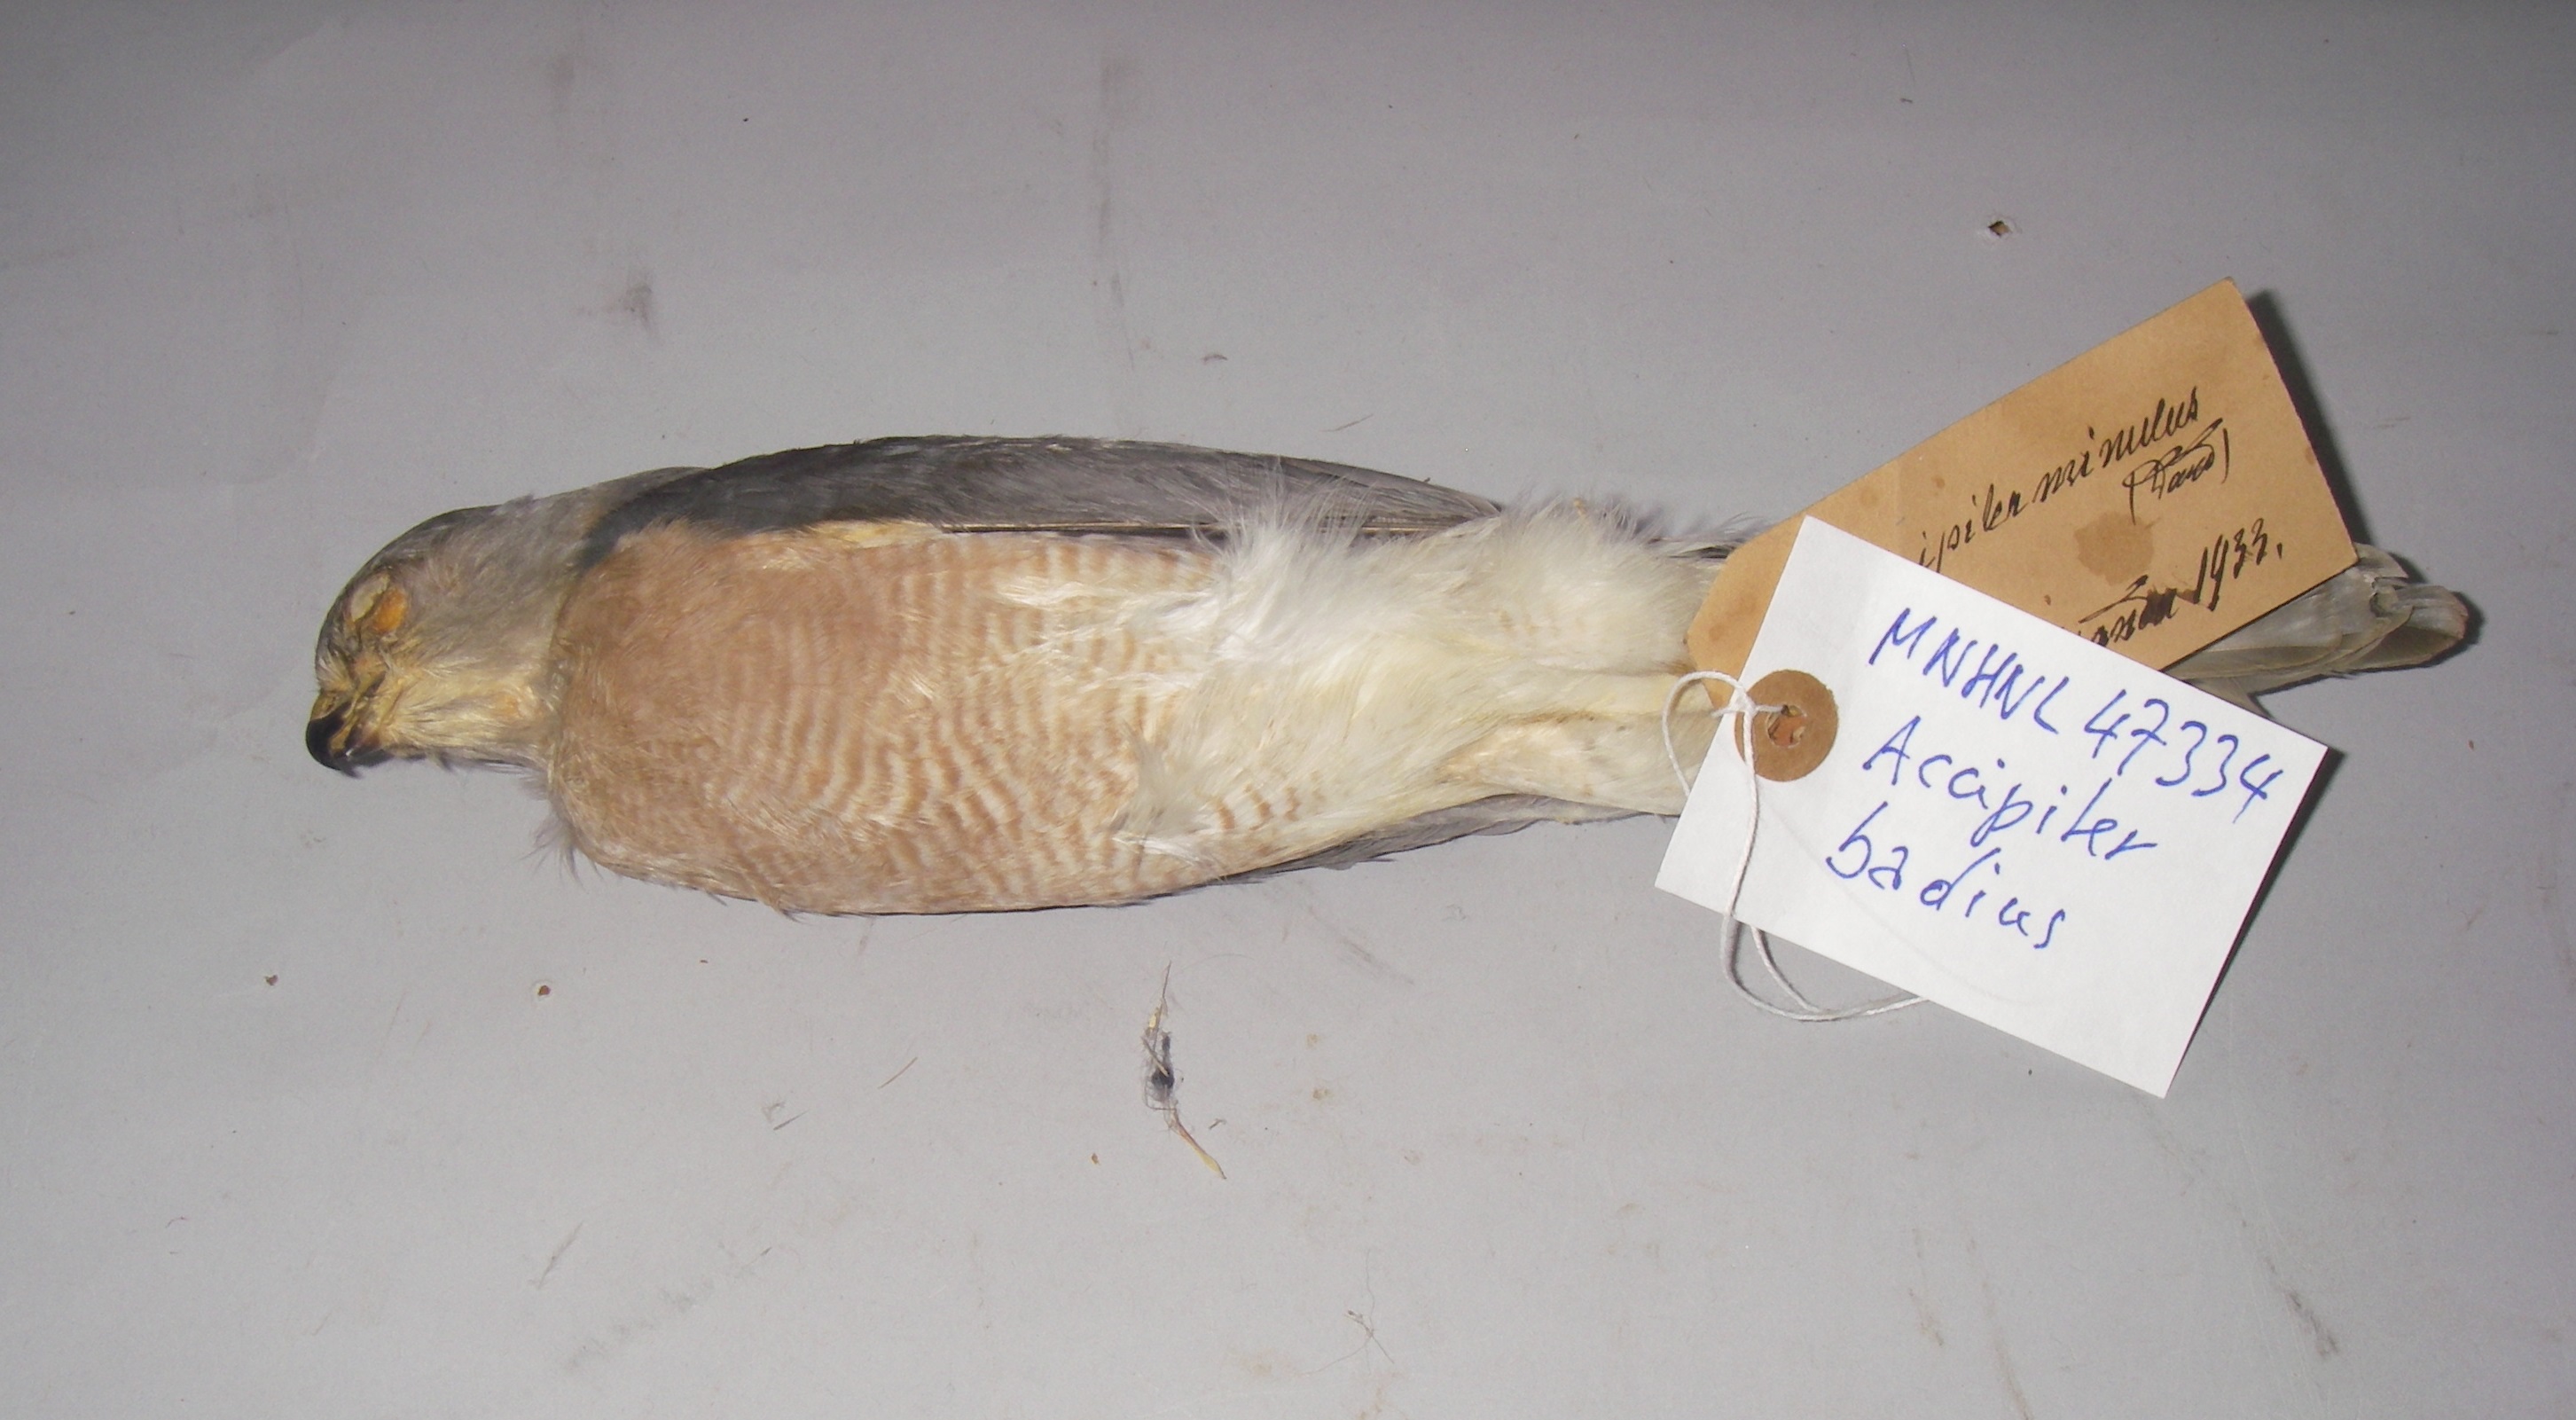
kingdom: Animalia
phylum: Chordata
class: Aves
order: Accipitriformes
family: Accipitridae
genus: Accipiter
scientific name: Accipiter badius
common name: Shikra
